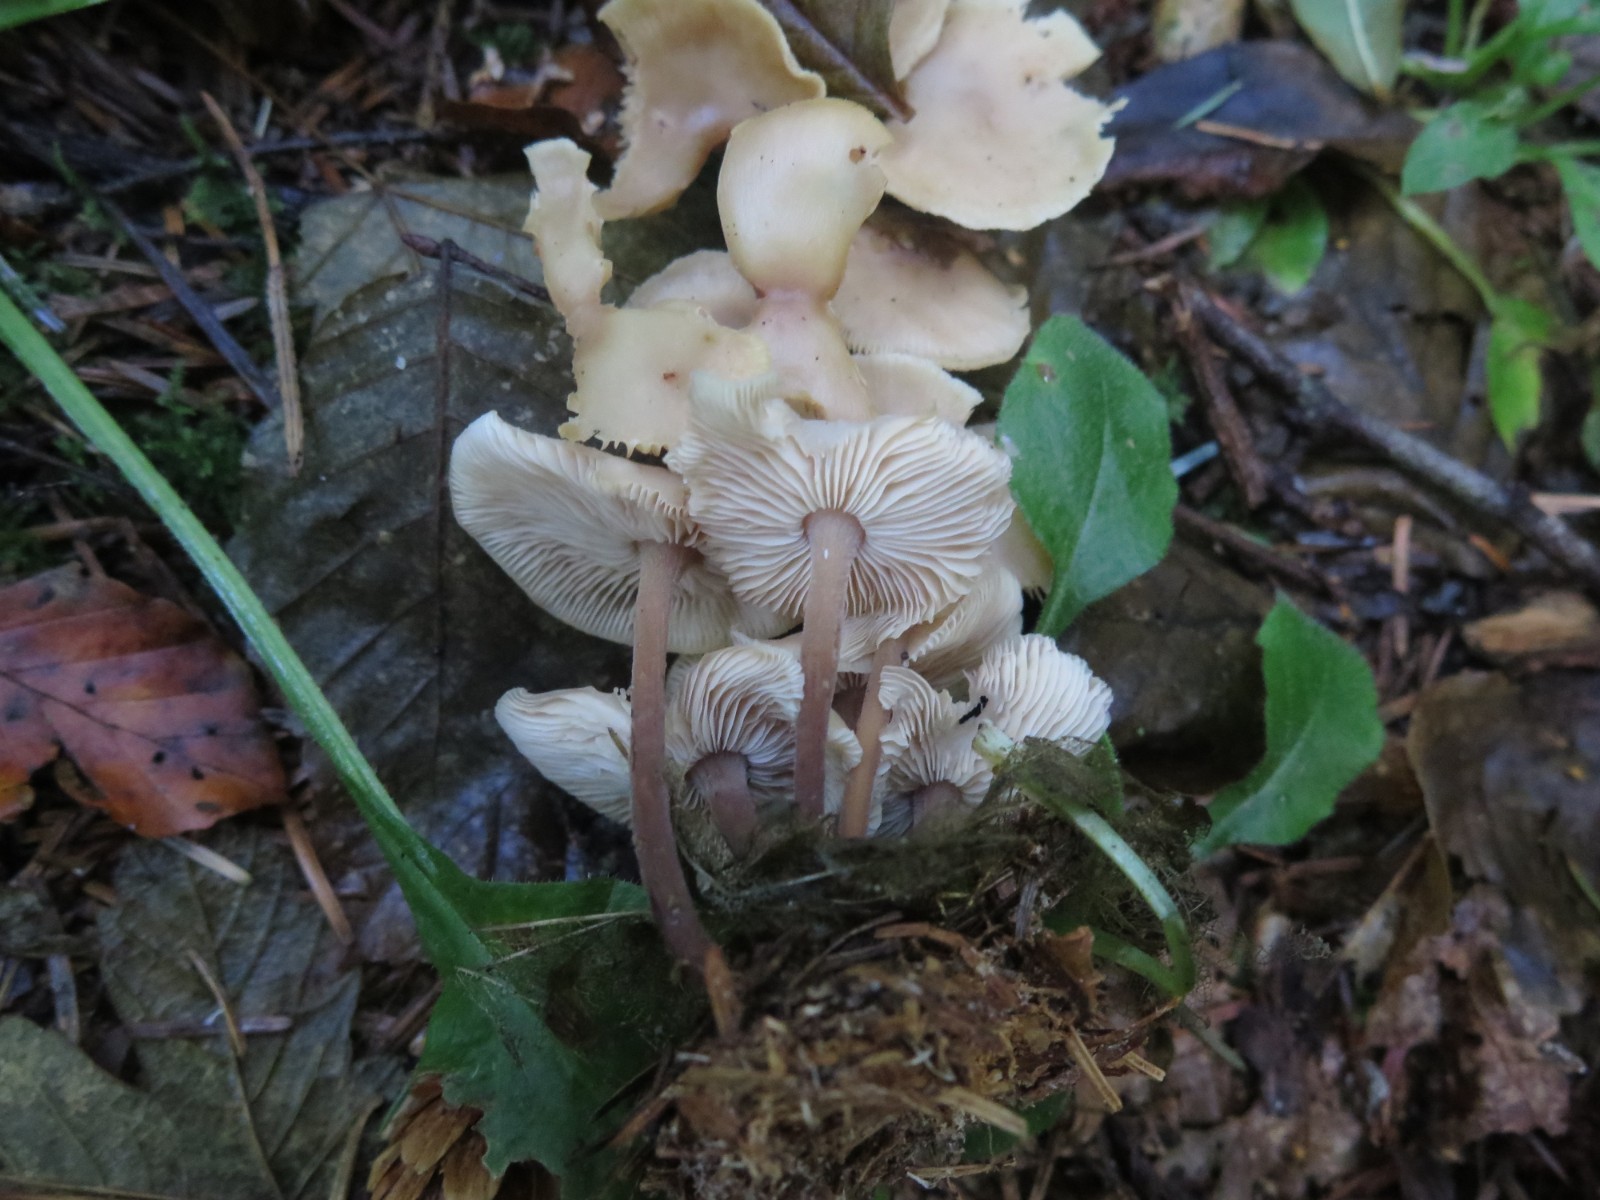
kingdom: Fungi
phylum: Basidiomycota
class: Agaricomycetes
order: Agaricales
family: Omphalotaceae
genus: Collybiopsis
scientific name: Collybiopsis confluens
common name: knippe-fladhat
